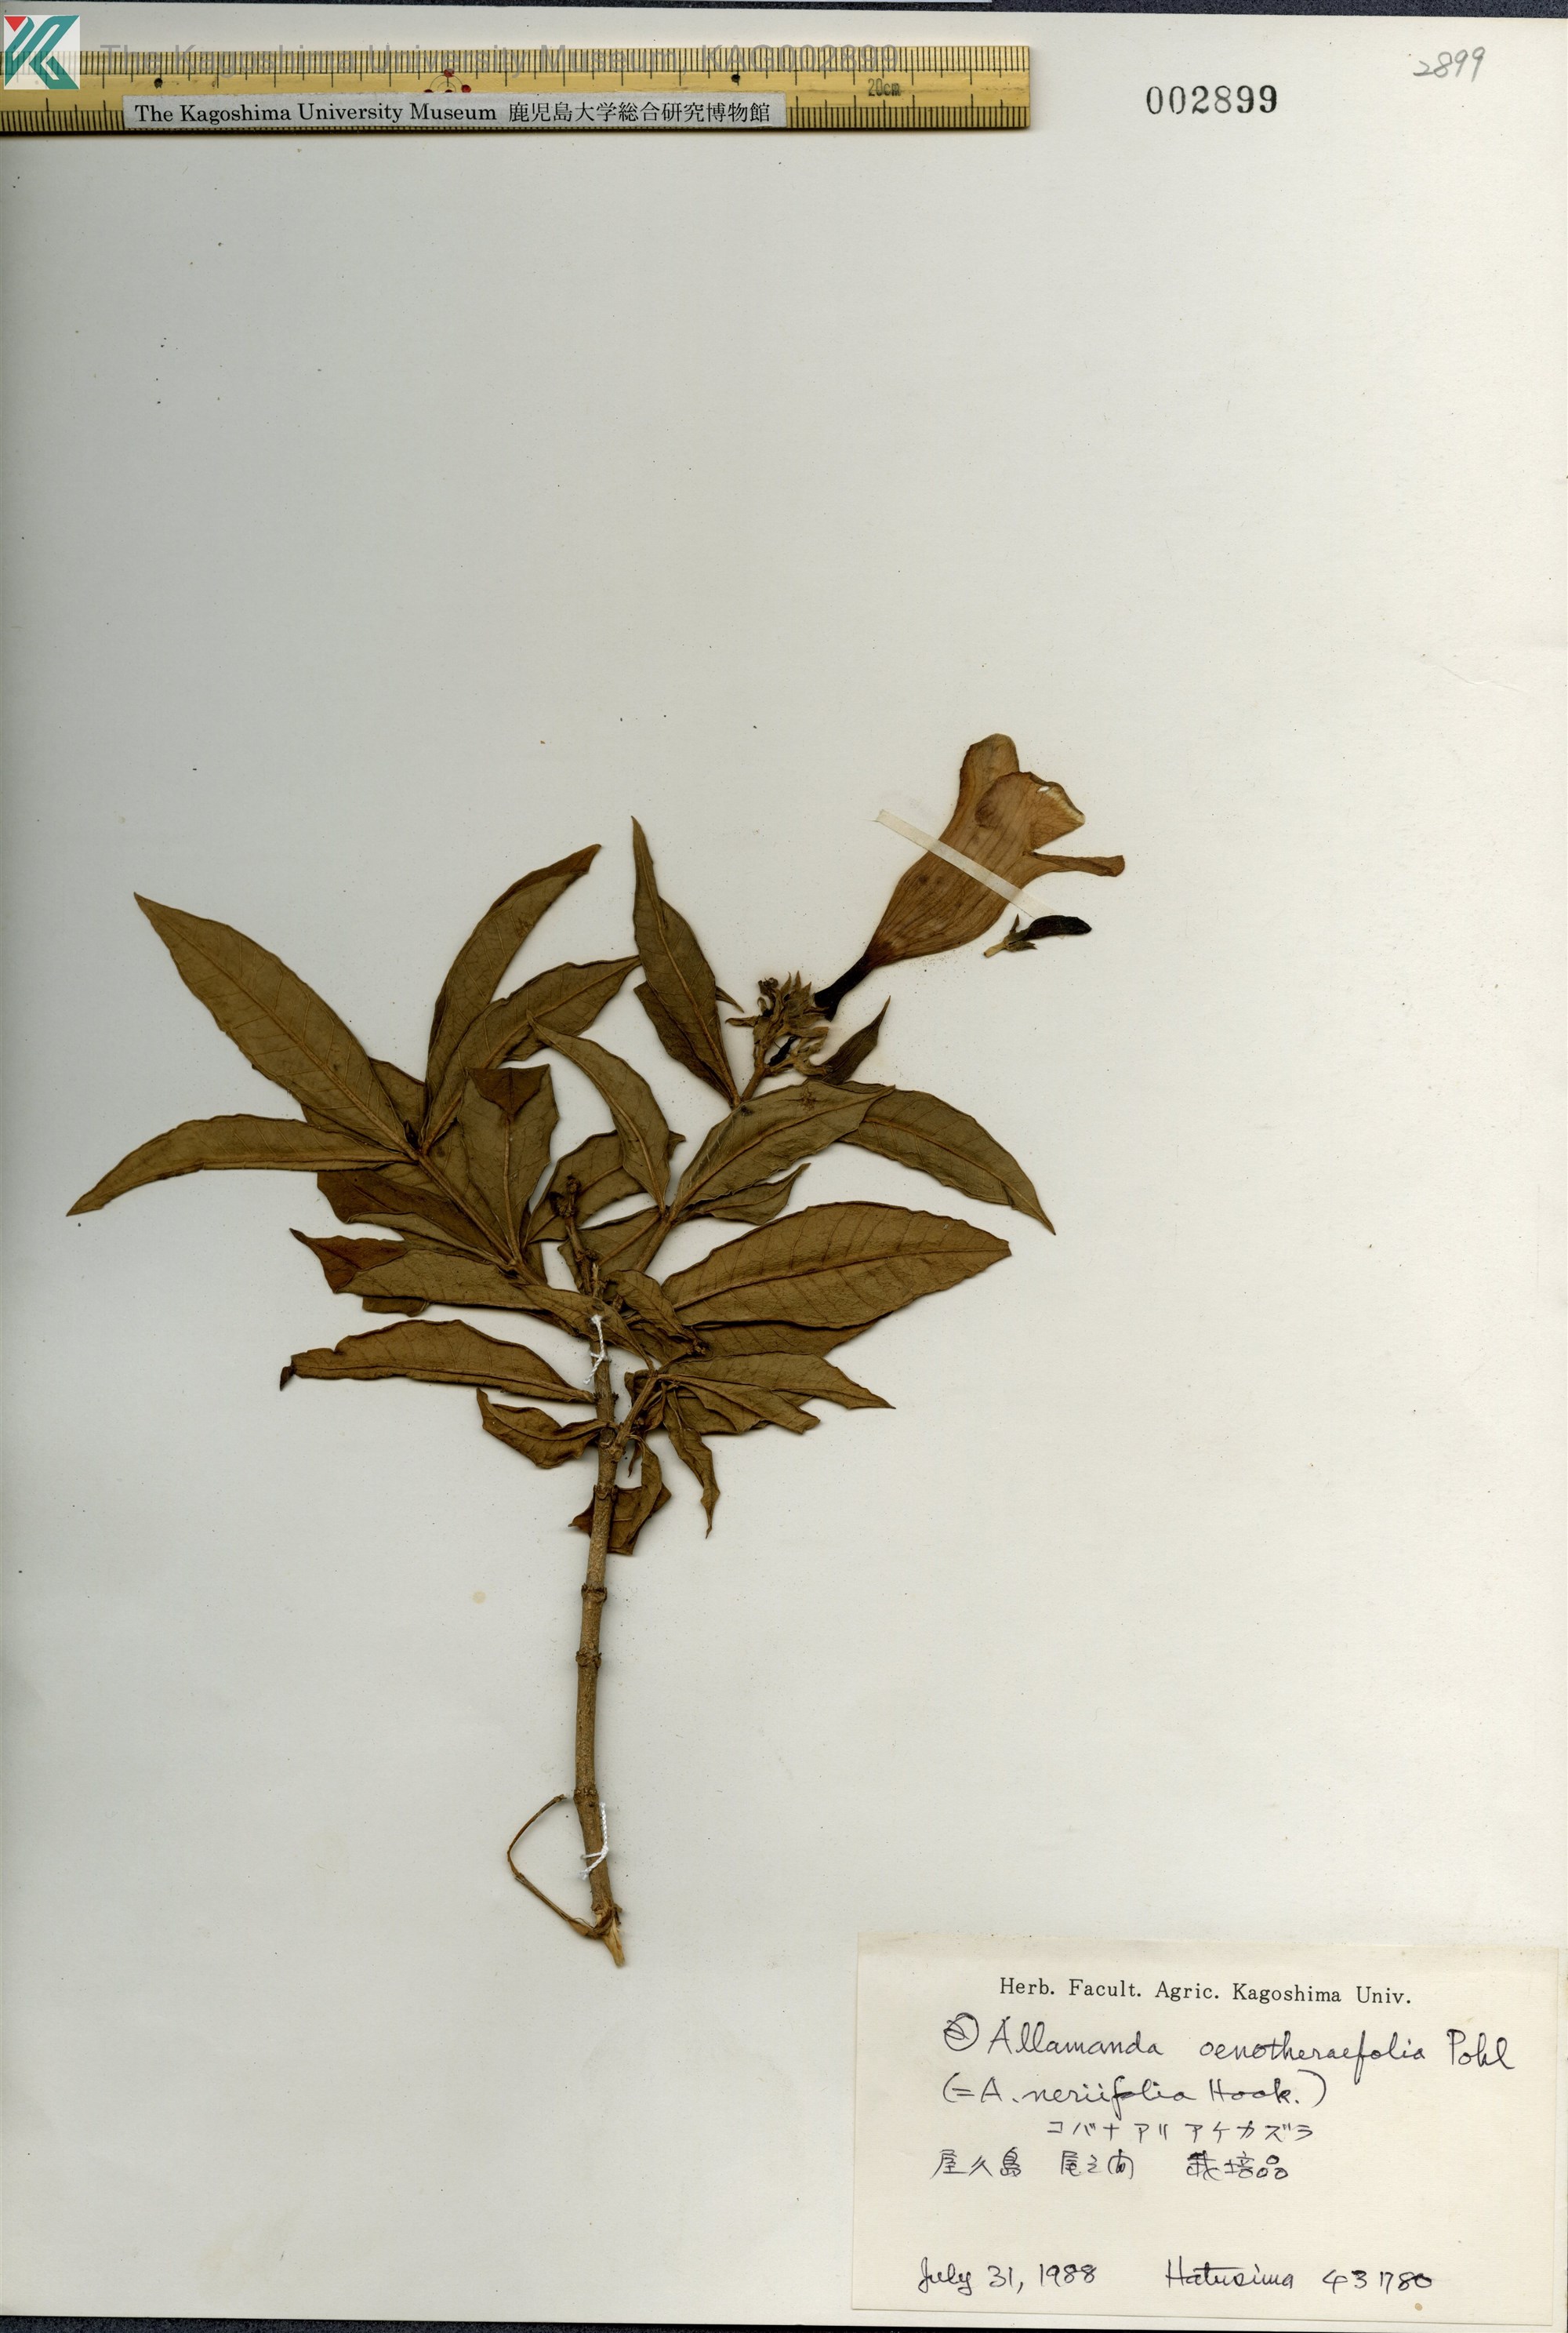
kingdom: Plantae
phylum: Tracheophyta
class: Magnoliopsida
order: Gentianales
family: Apocynaceae
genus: Allamanda
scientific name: Allamanda oenotherifolia
